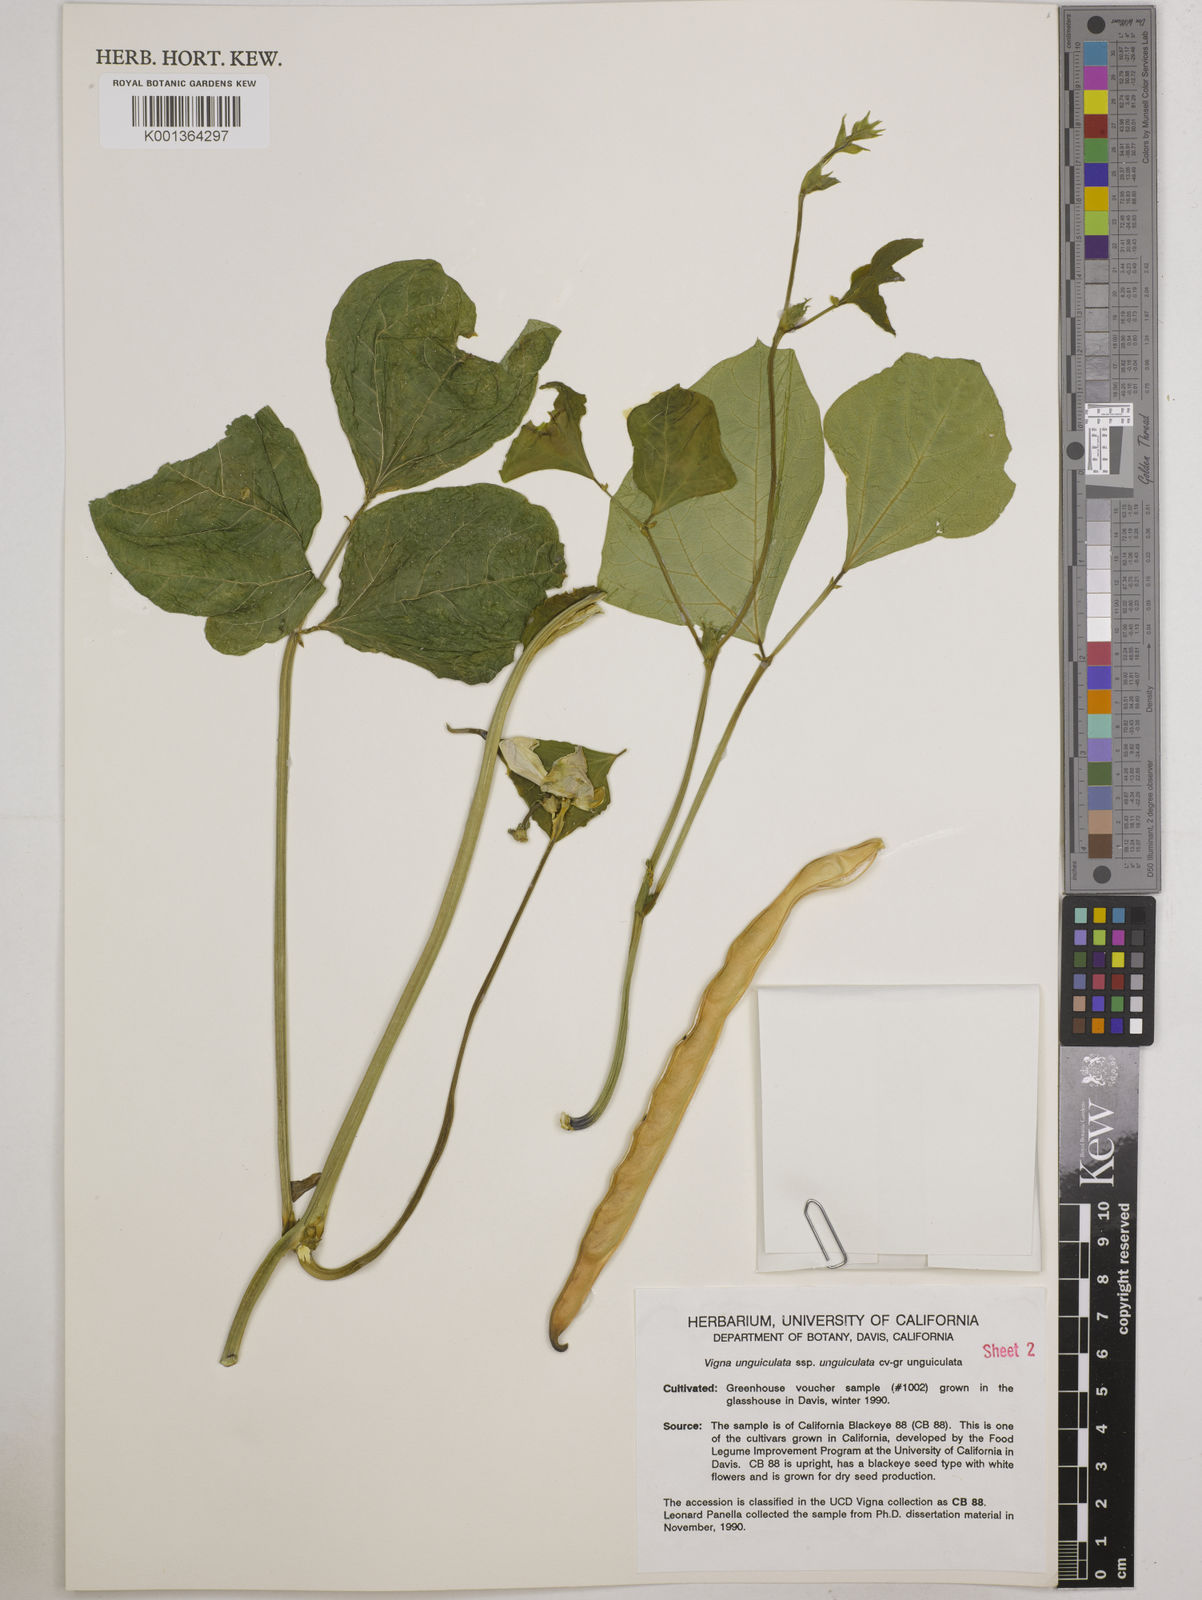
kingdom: Plantae
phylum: Tracheophyta
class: Magnoliopsida
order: Fabales
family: Fabaceae
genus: Vigna
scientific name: Vigna
